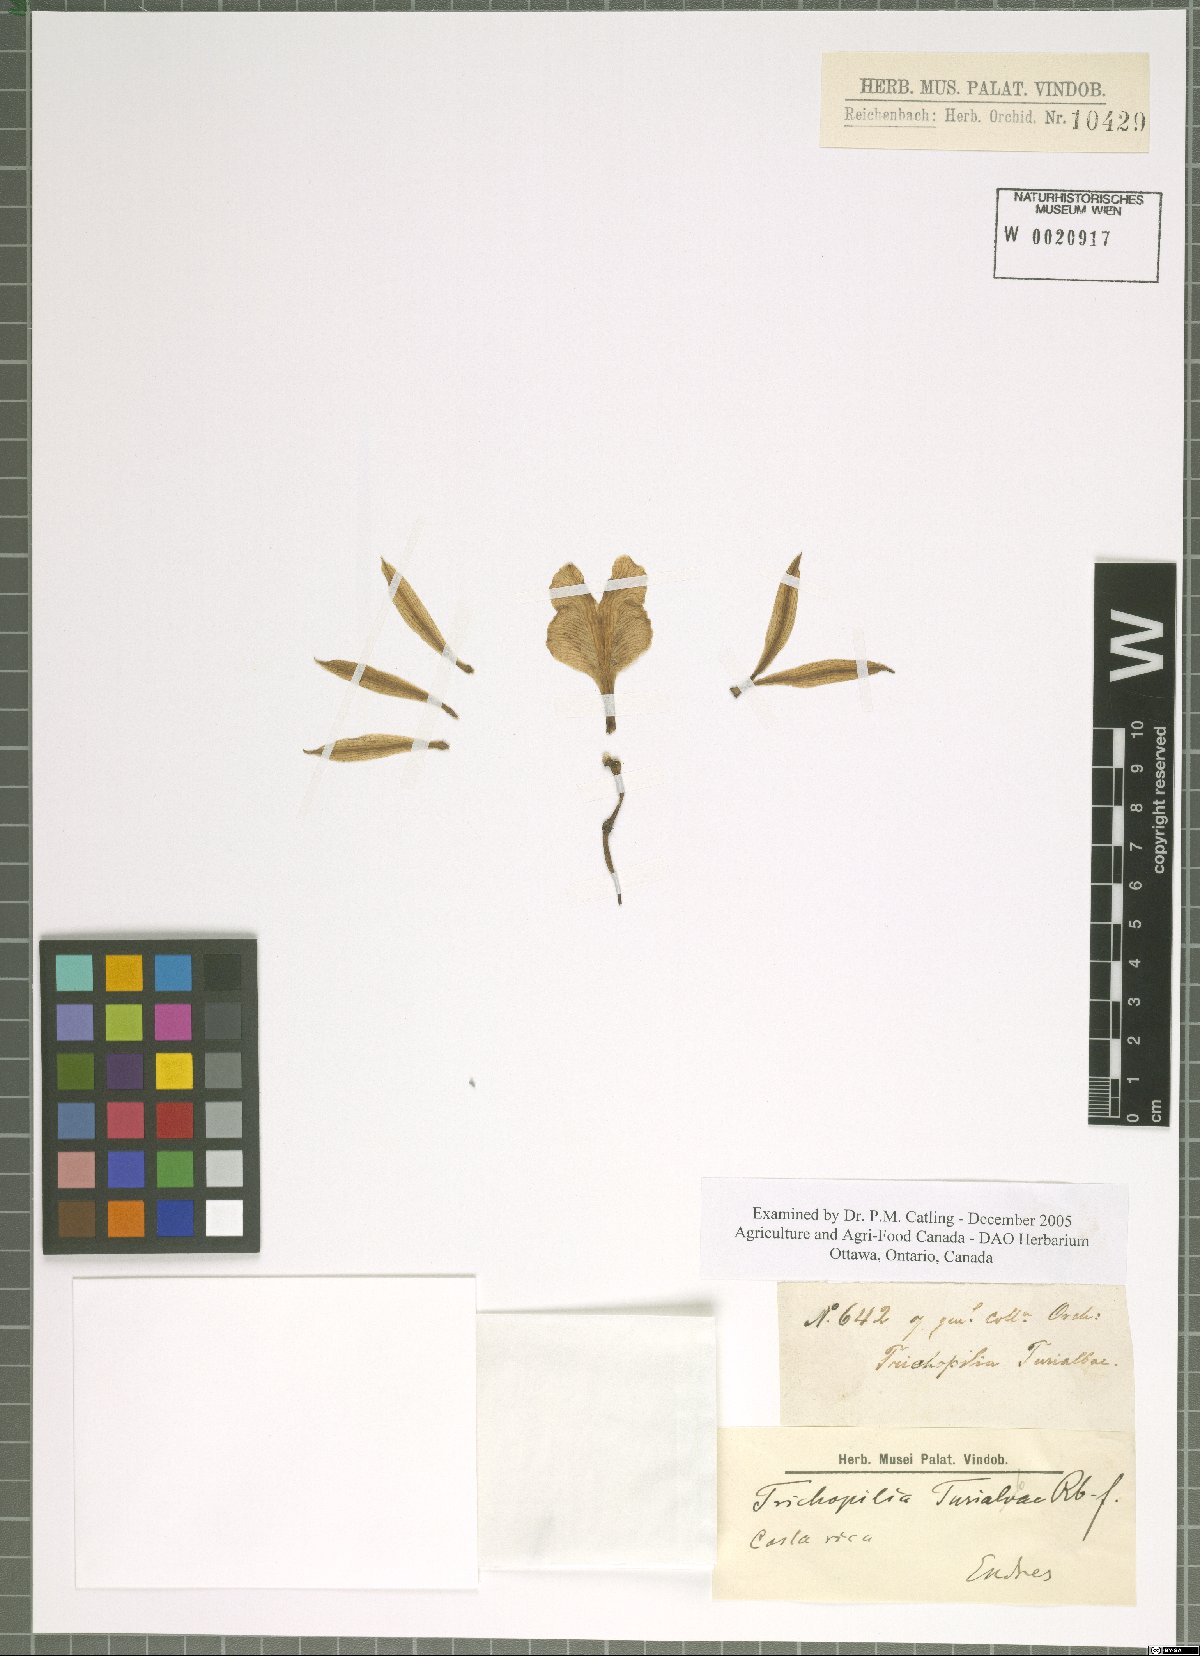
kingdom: Plantae
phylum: Tracheophyta
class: Liliopsida
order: Asparagales
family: Orchidaceae
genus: Trichopilia
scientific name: Trichopilia turialbae
